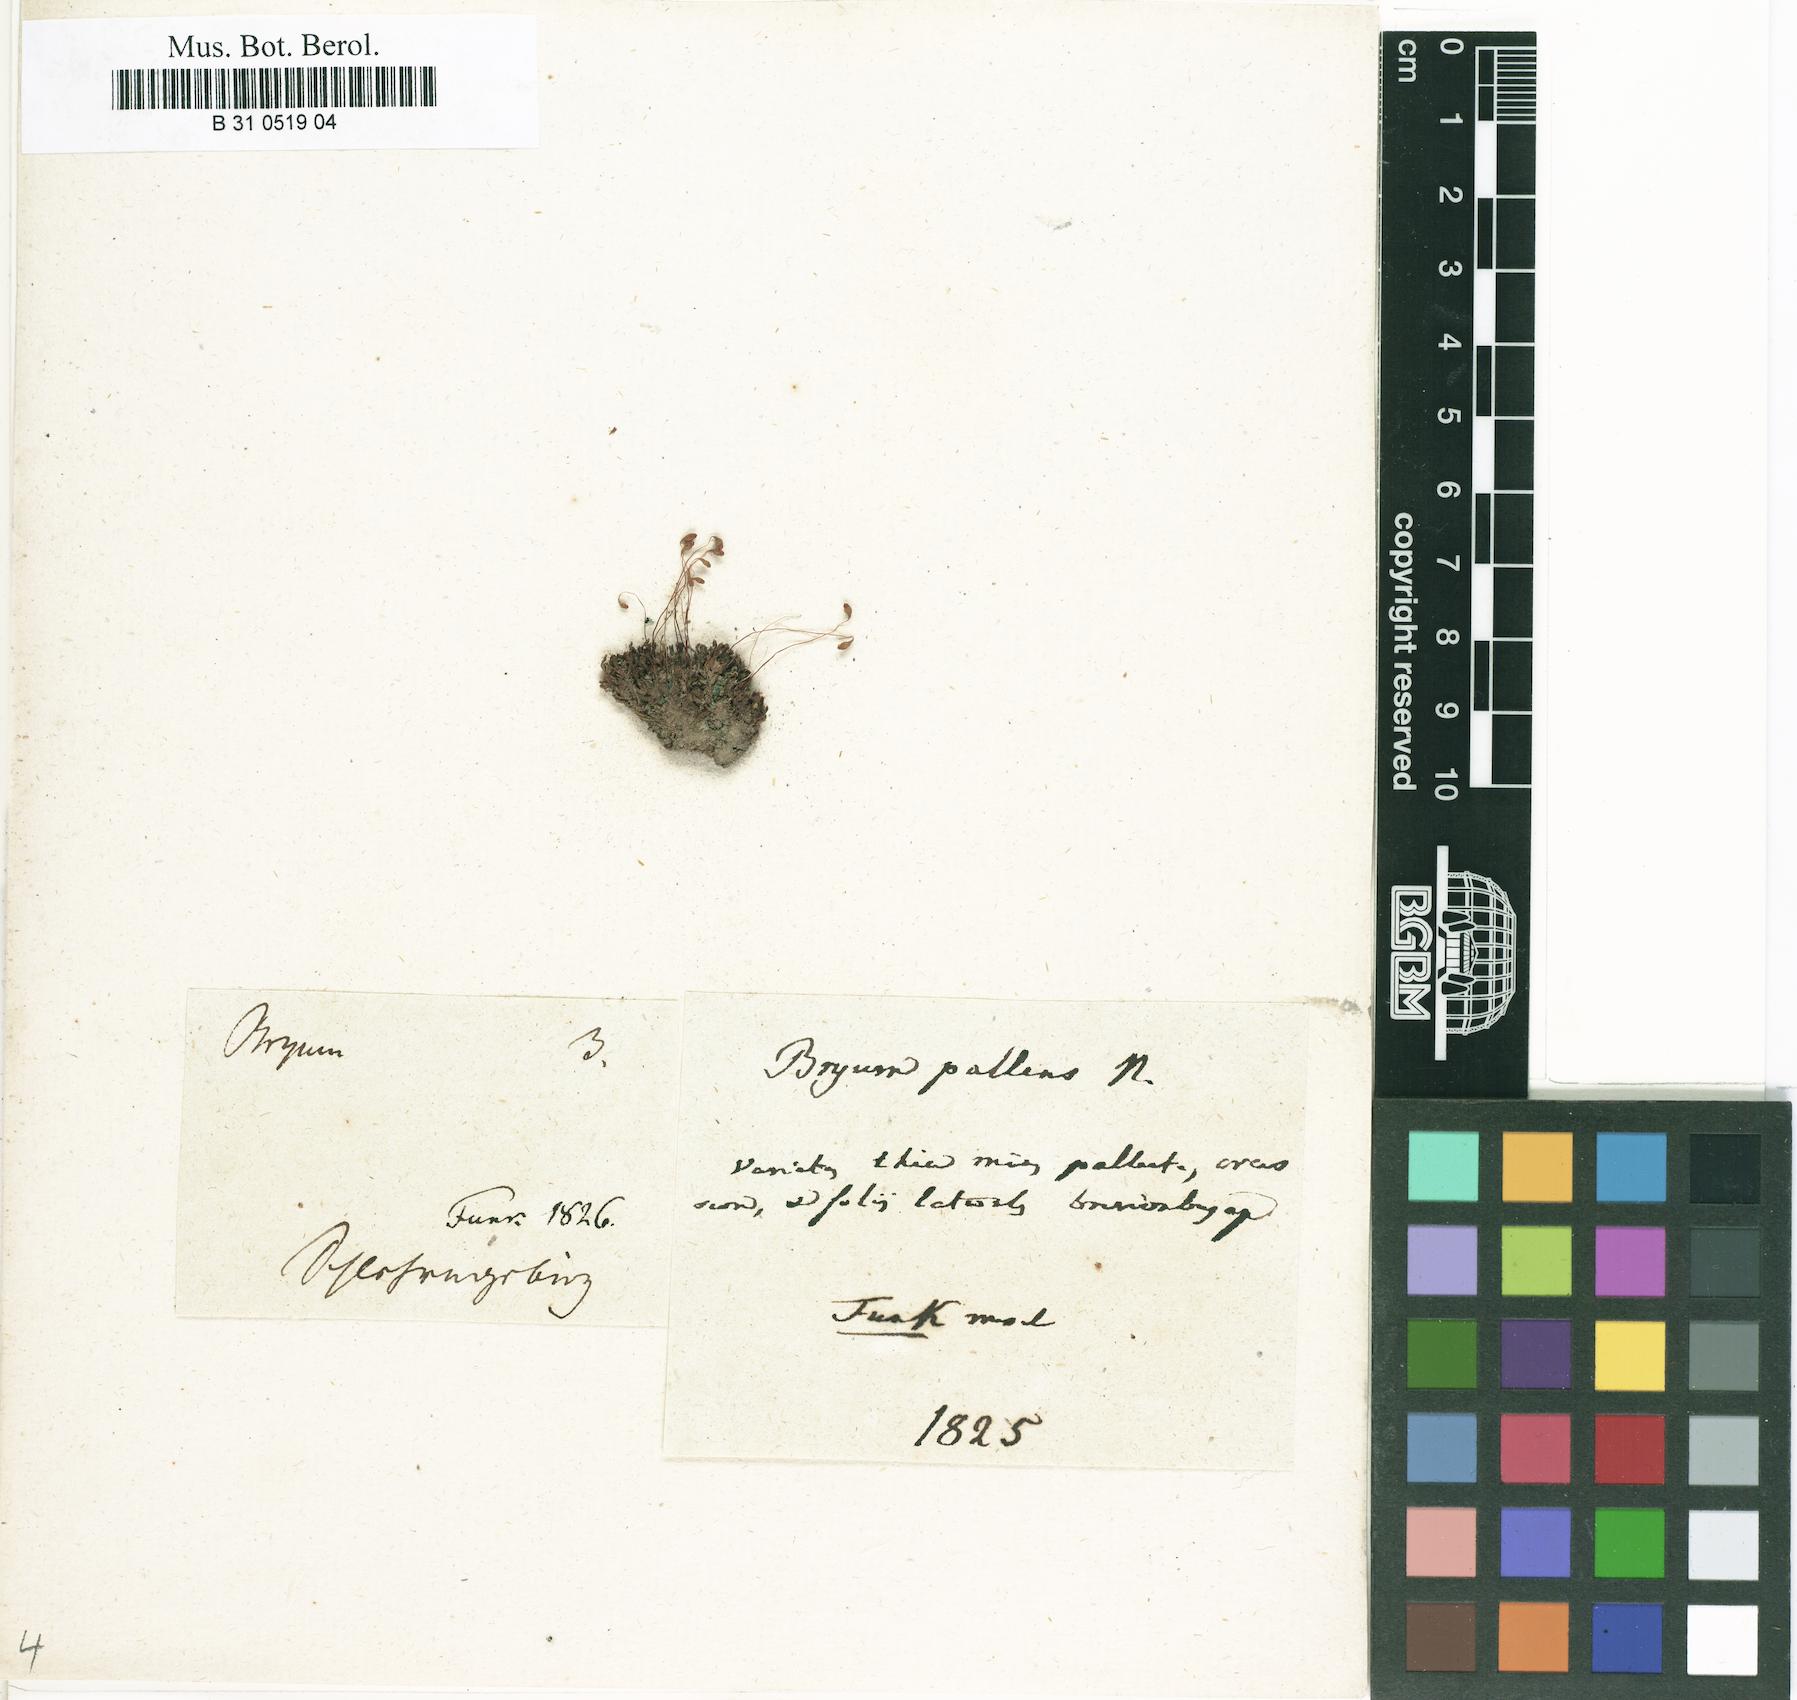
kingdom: Plantae
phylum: Bryophyta
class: Bryopsida
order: Bryales
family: Bryaceae
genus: Ptychostomum
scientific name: Ptychostomum pallens
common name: Pale thread-moss
